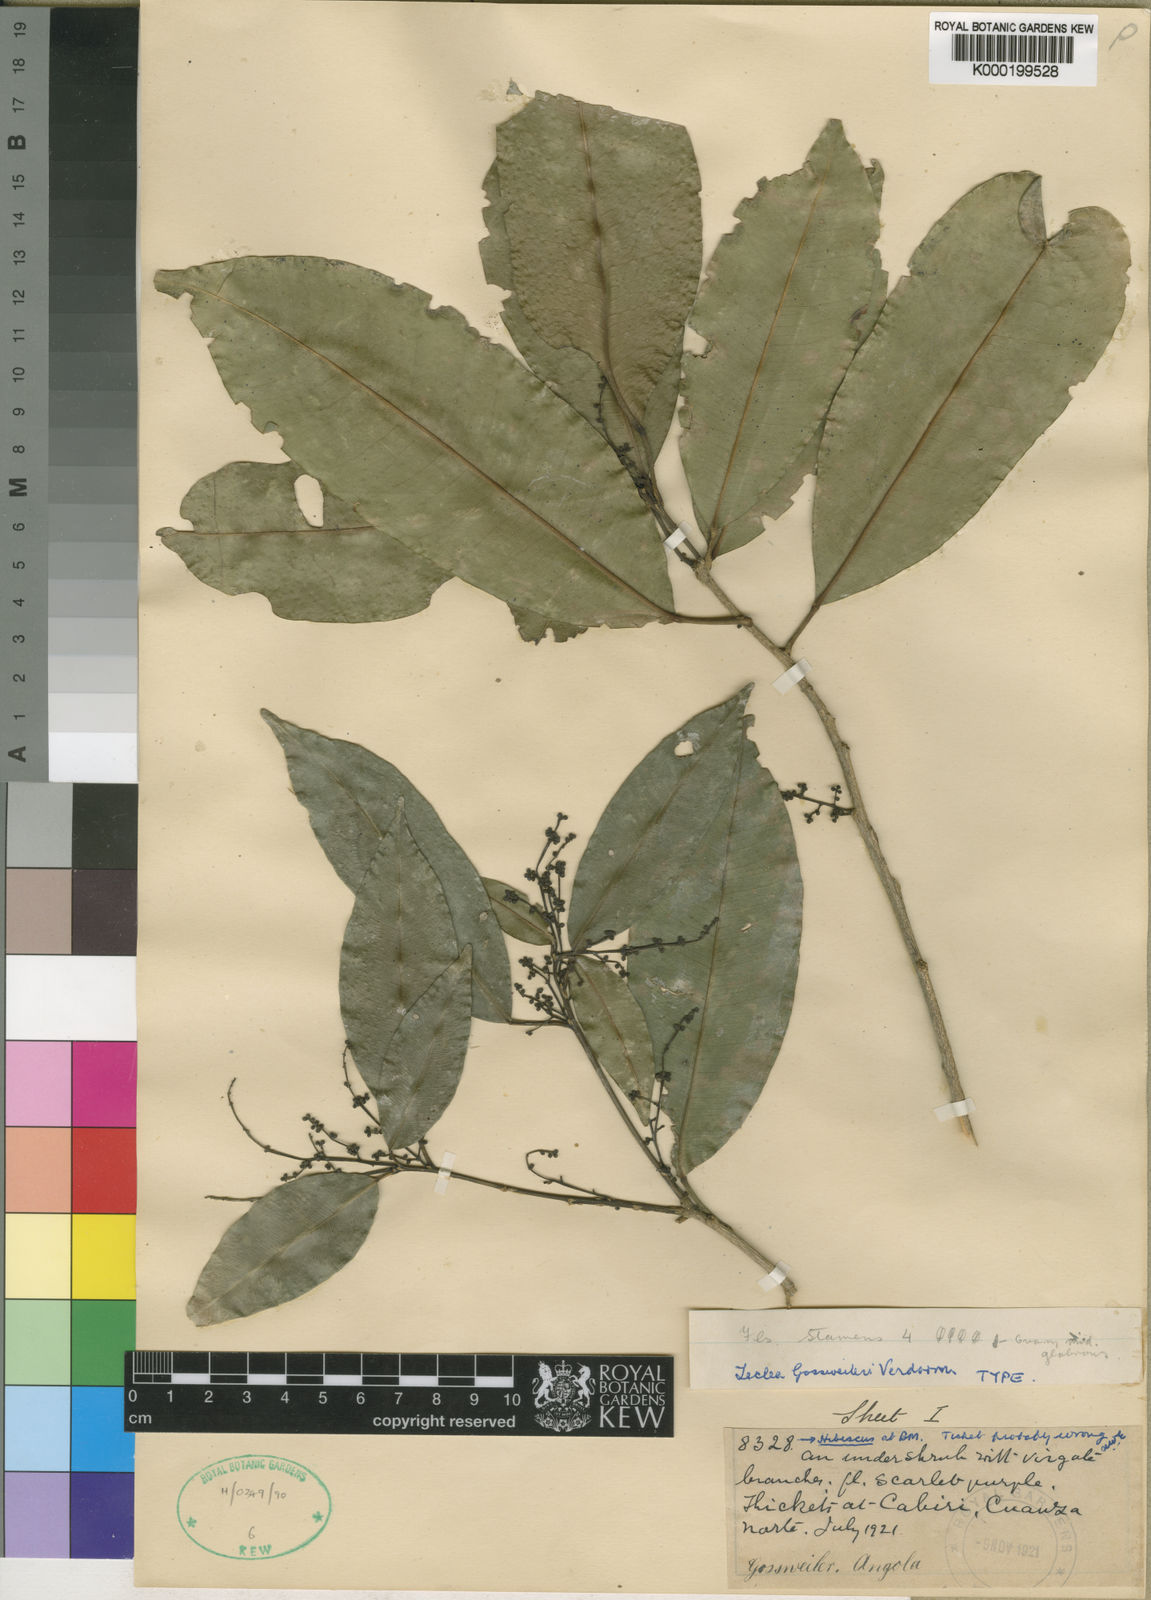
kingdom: Plantae
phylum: Tracheophyta
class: Magnoliopsida
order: Sapindales
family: Rutaceae
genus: Vepris
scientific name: Vepris gossweileri
